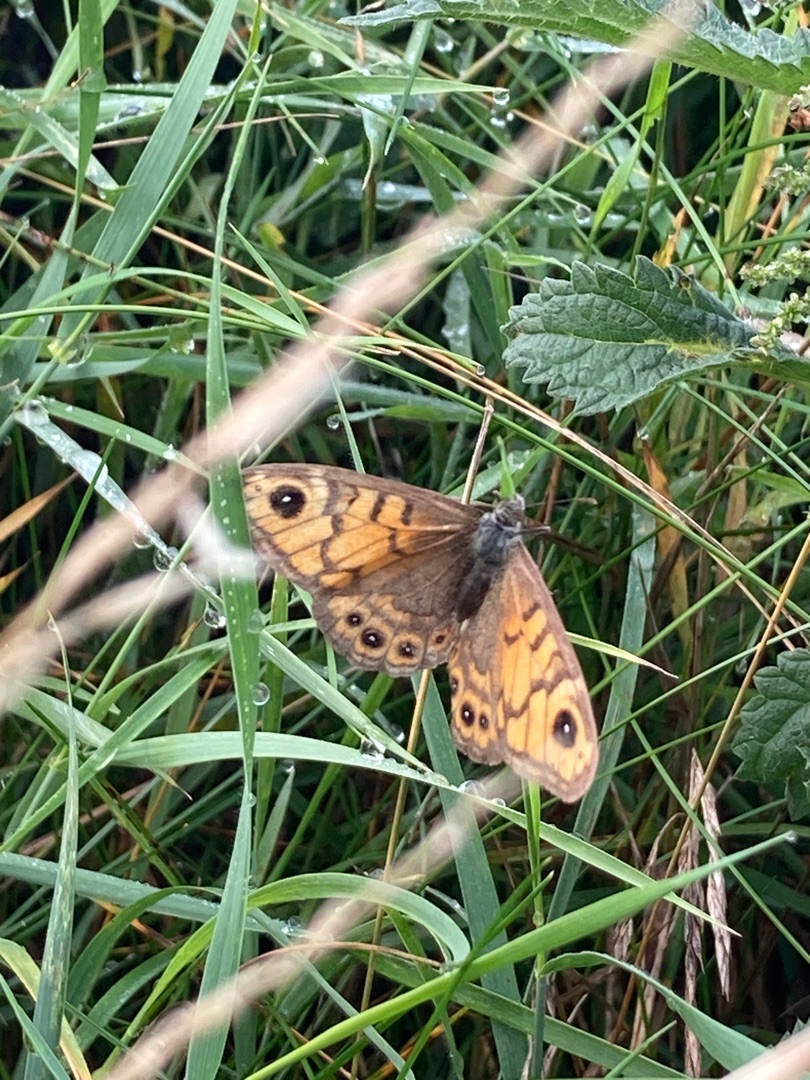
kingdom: Animalia
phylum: Arthropoda
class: Insecta
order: Lepidoptera
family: Nymphalidae
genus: Pararge
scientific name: Pararge Lasiommata megera
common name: Vejrandøje
